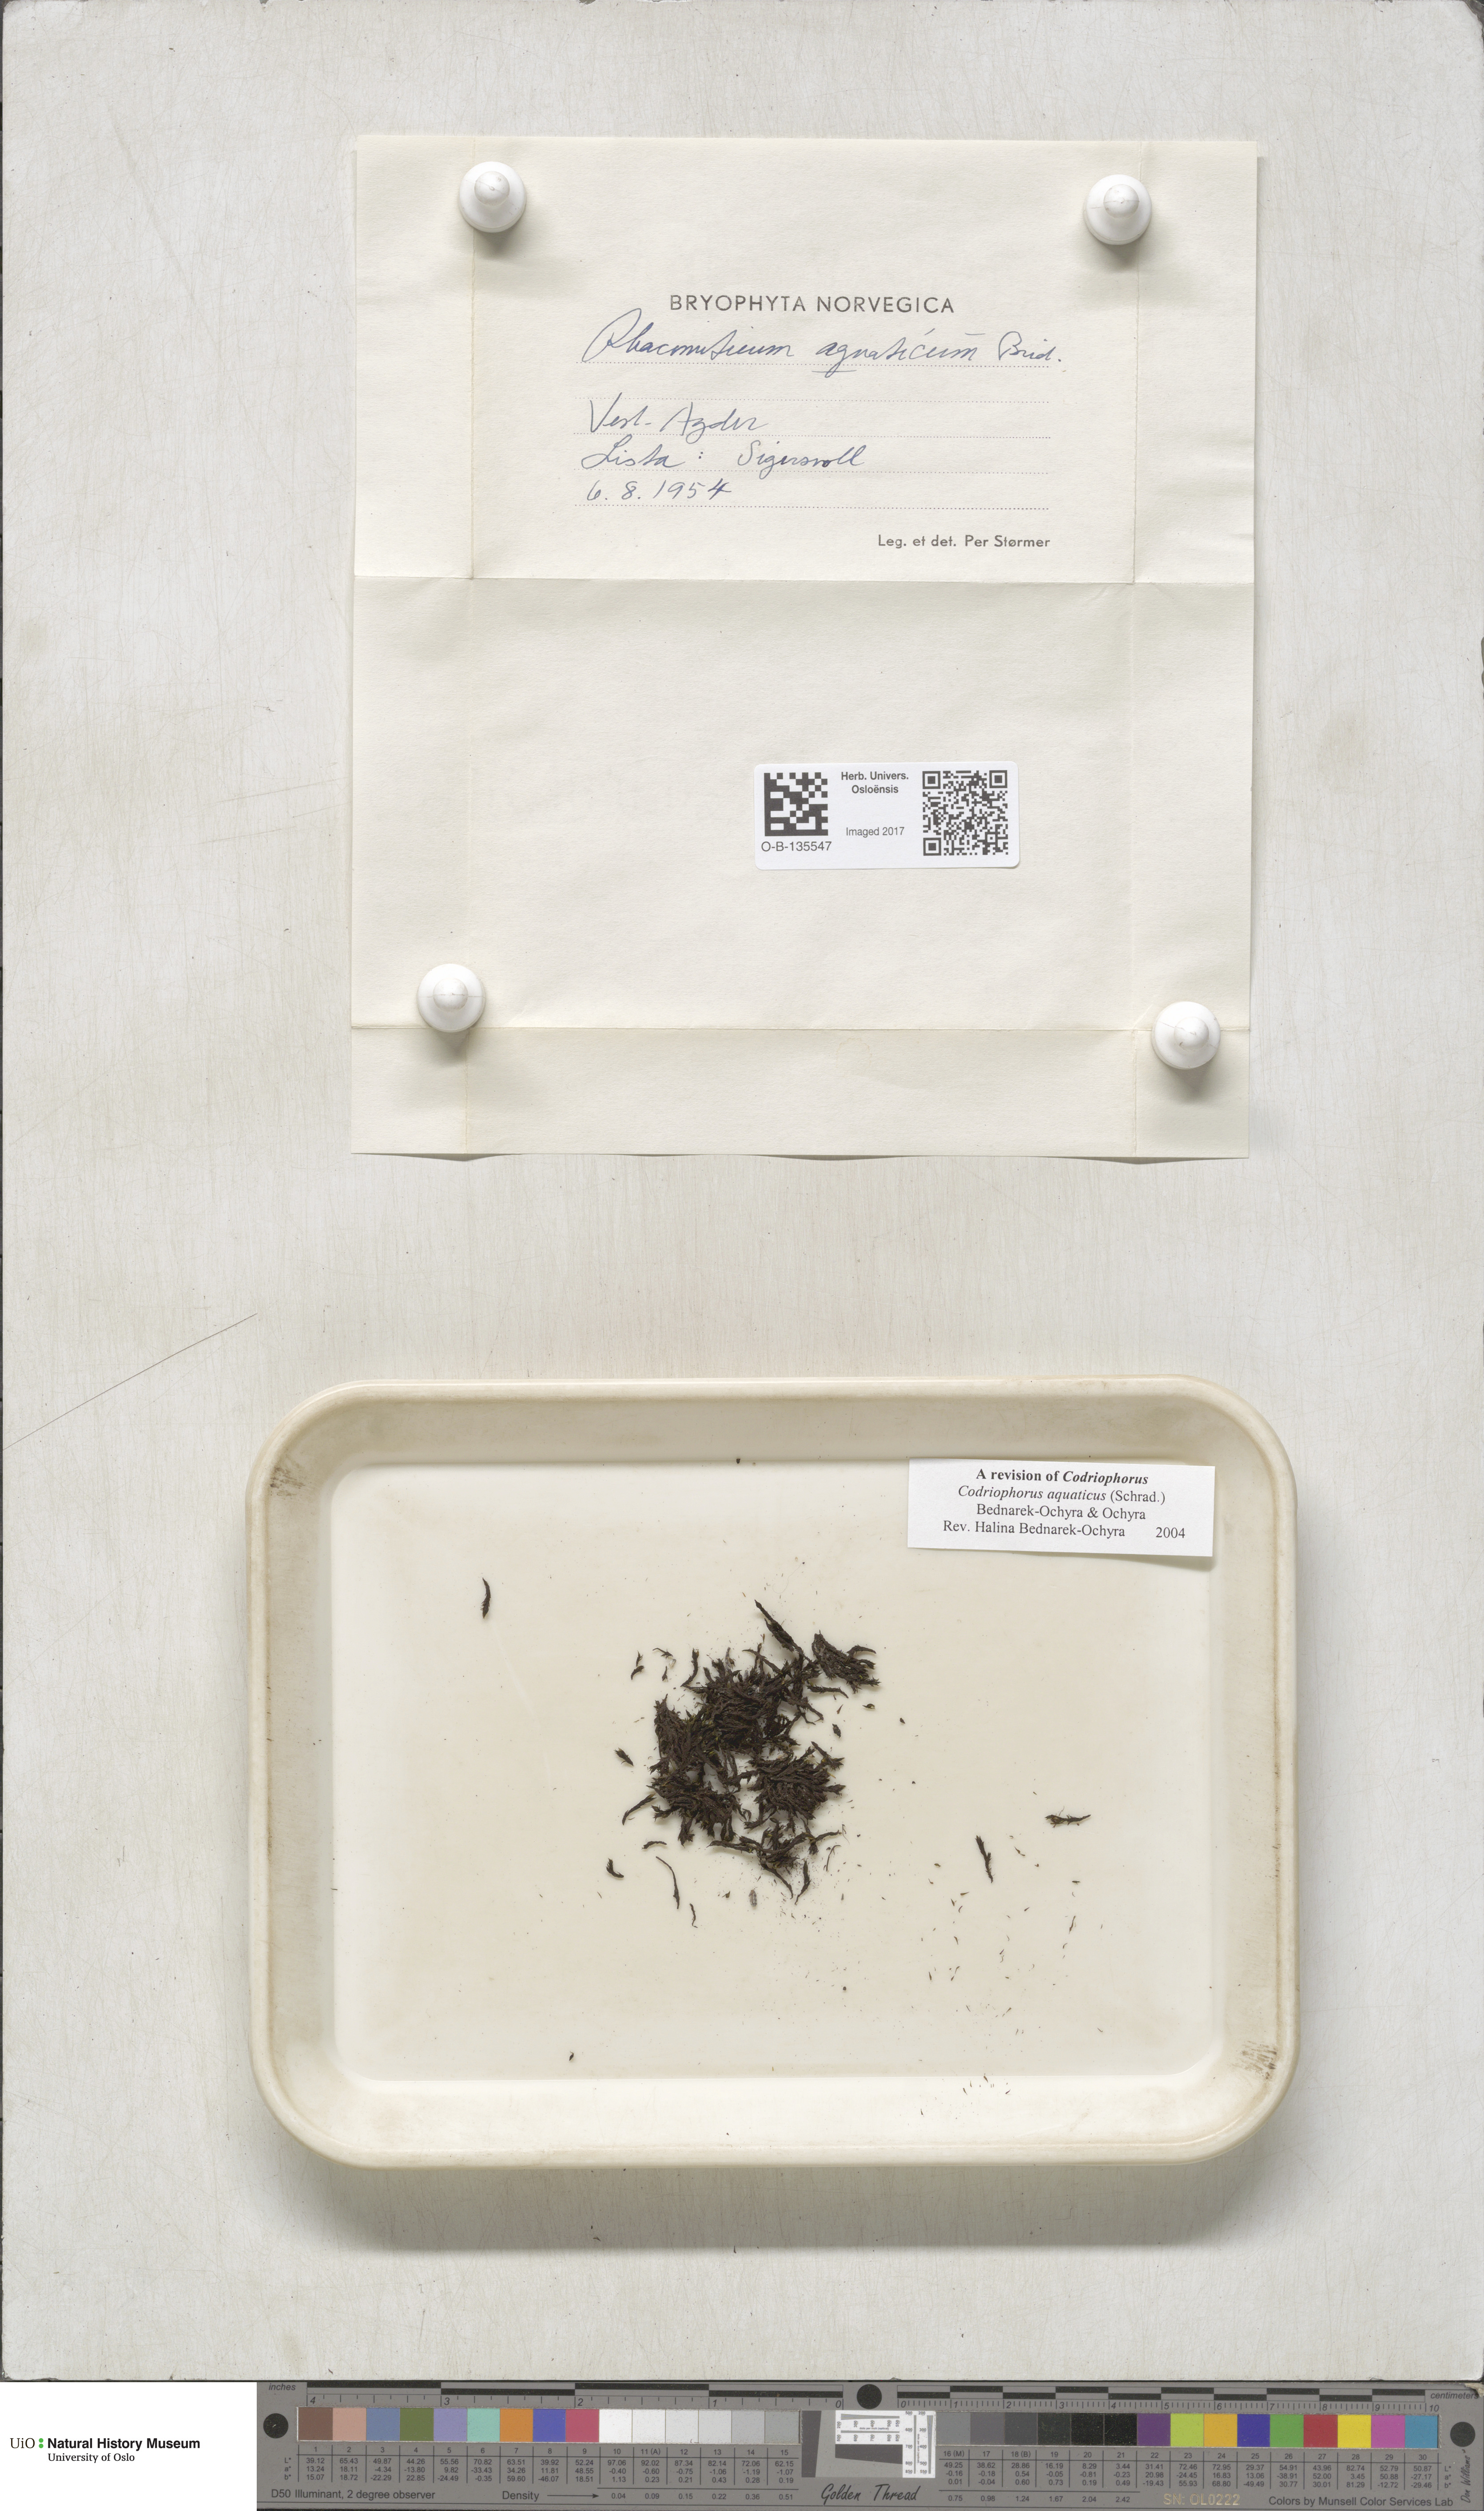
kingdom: Plantae
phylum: Bryophyta
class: Bryopsida
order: Grimmiales
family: Grimmiaceae
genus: Codriophorus
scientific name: Codriophorus aquaticus
